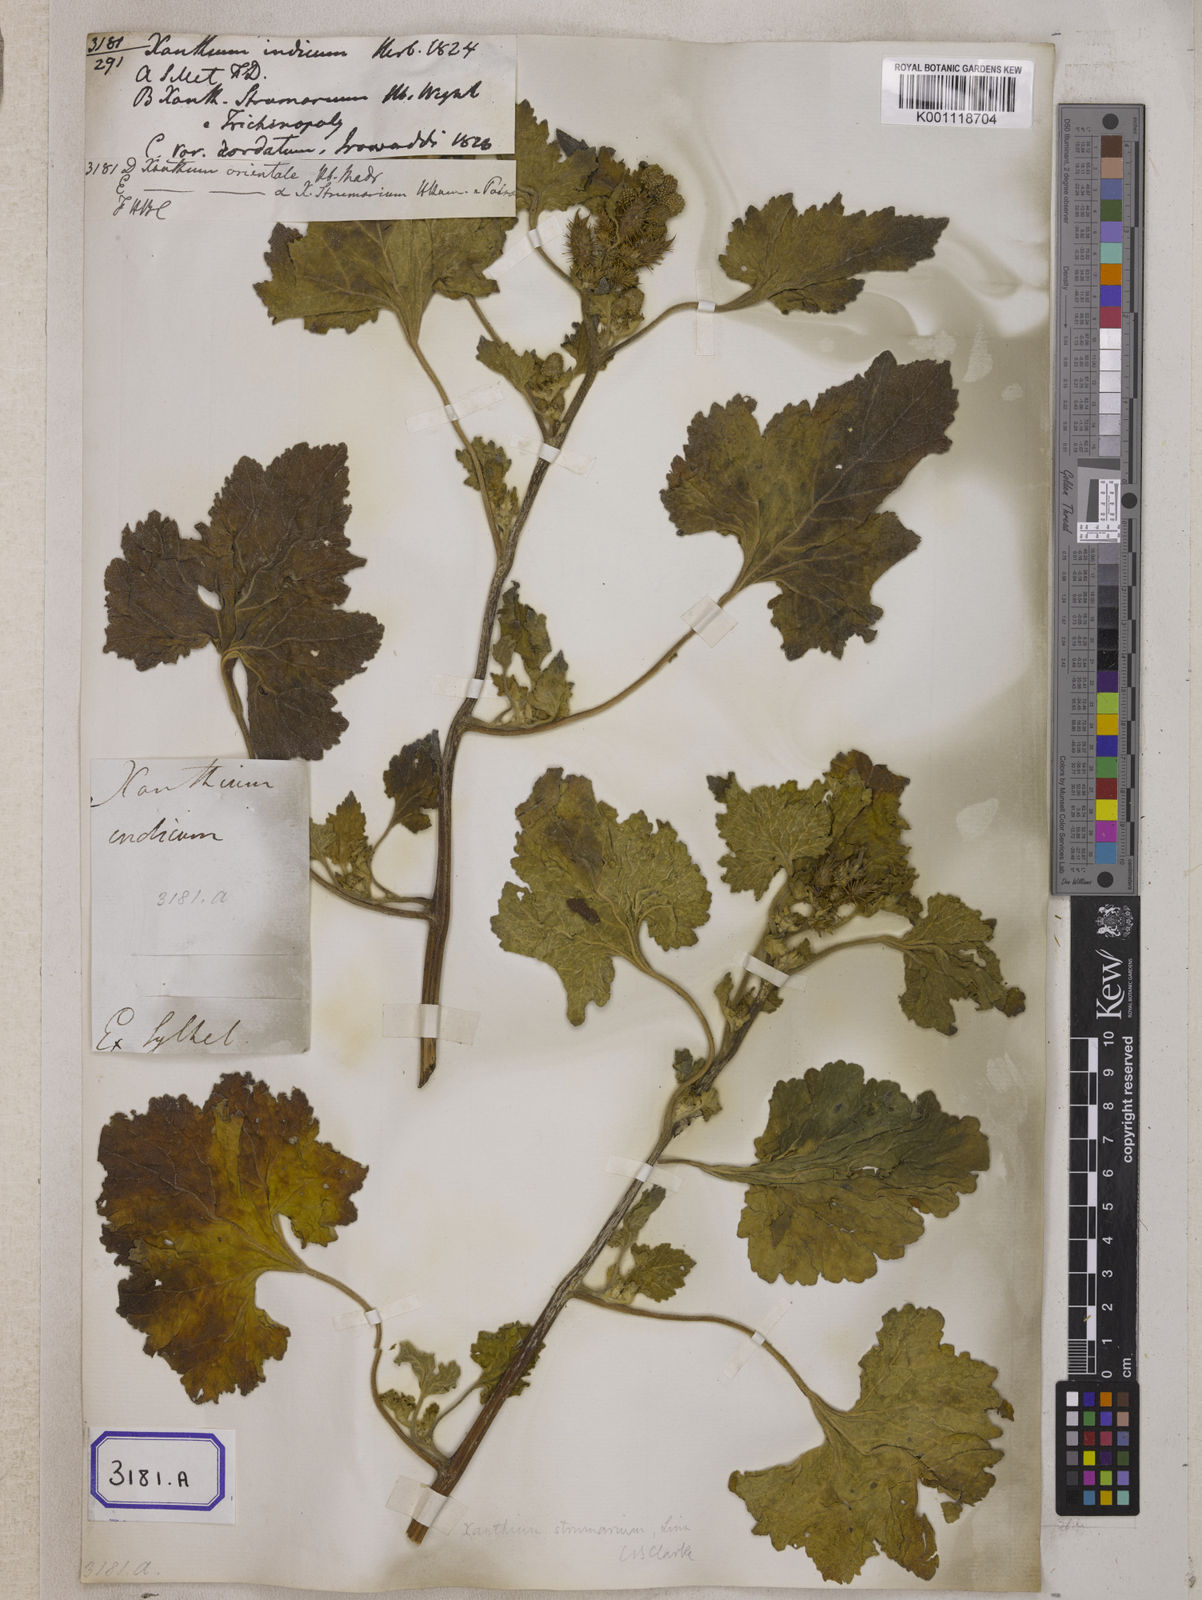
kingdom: Plantae
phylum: Tracheophyta
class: Magnoliopsida
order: Asterales
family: Asteraceae
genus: Xanthium
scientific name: Xanthium strumarium
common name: Rough cocklebur
